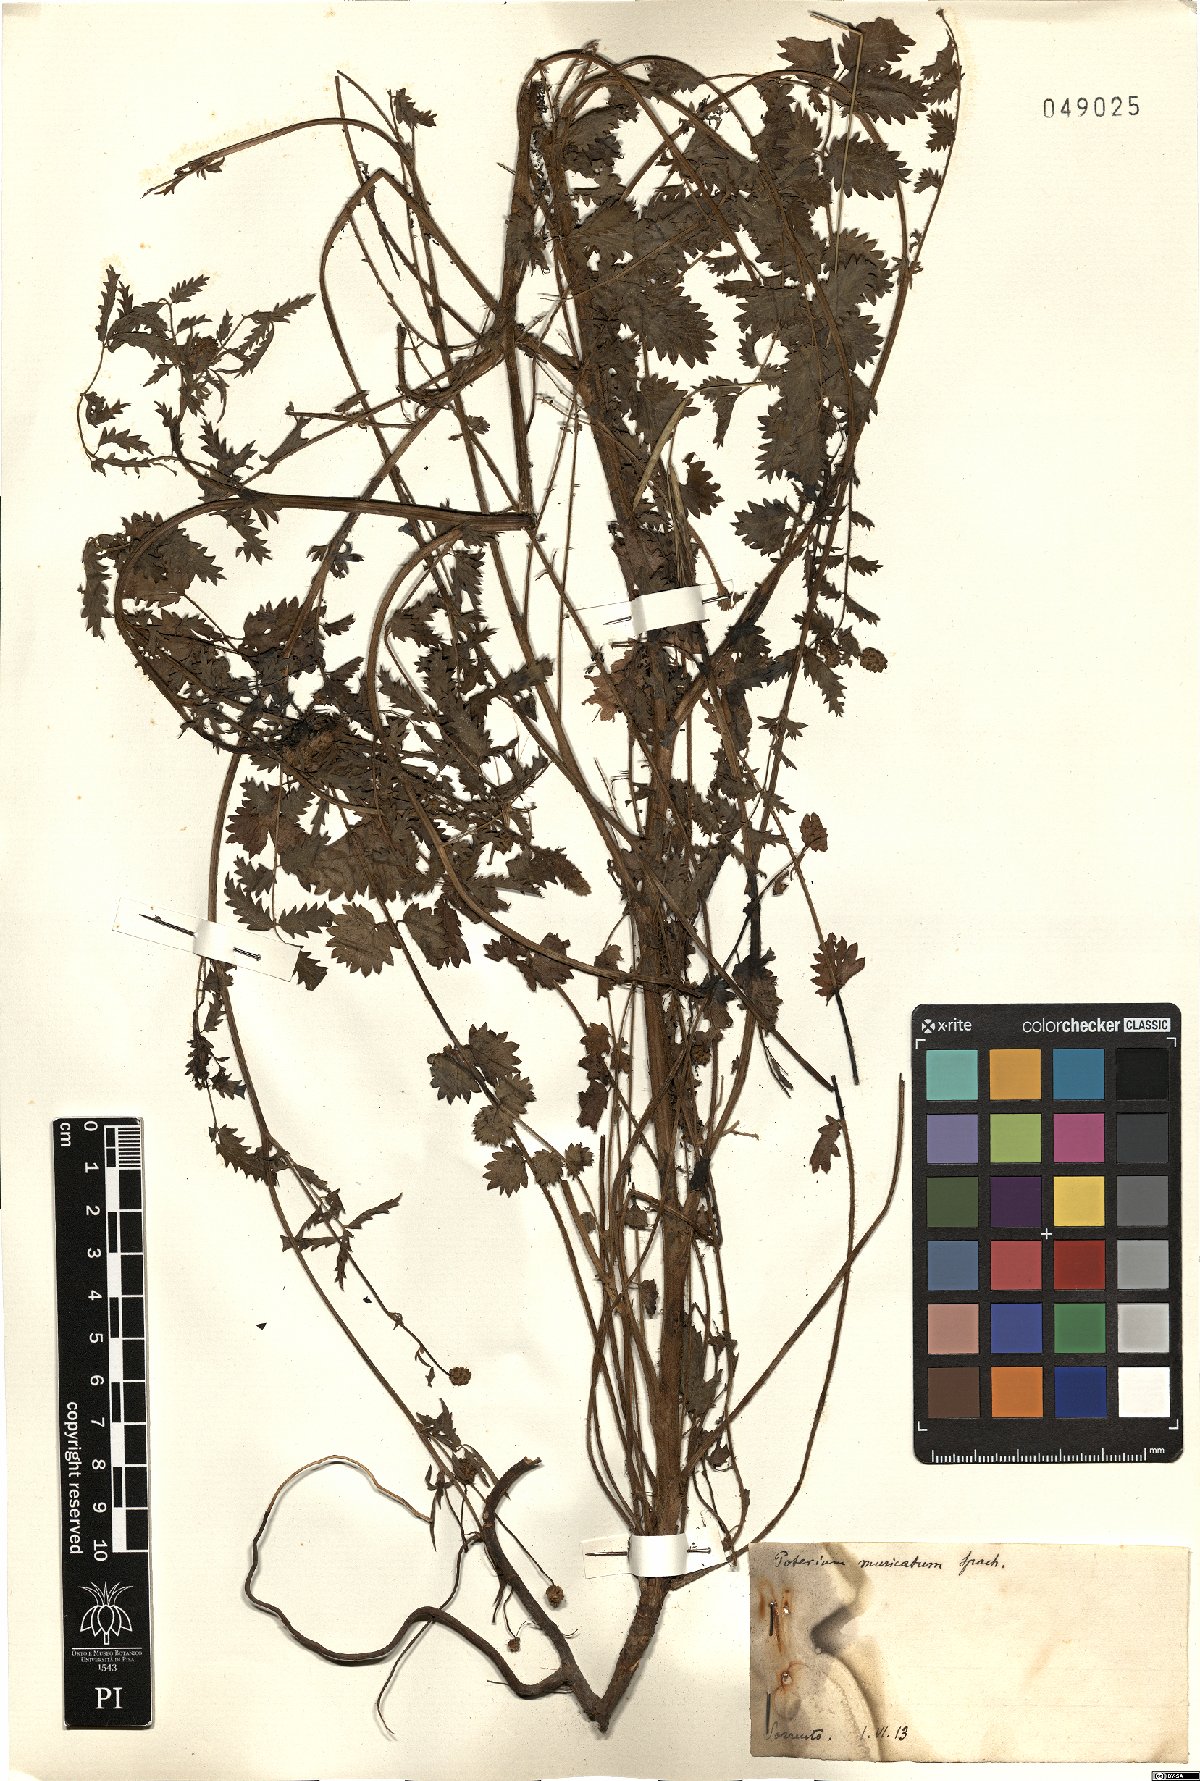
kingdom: Plantae
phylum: Tracheophyta
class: Magnoliopsida
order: Rosales
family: Rosaceae
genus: Poterium
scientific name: Poterium sanguisorba
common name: Salad burnet
